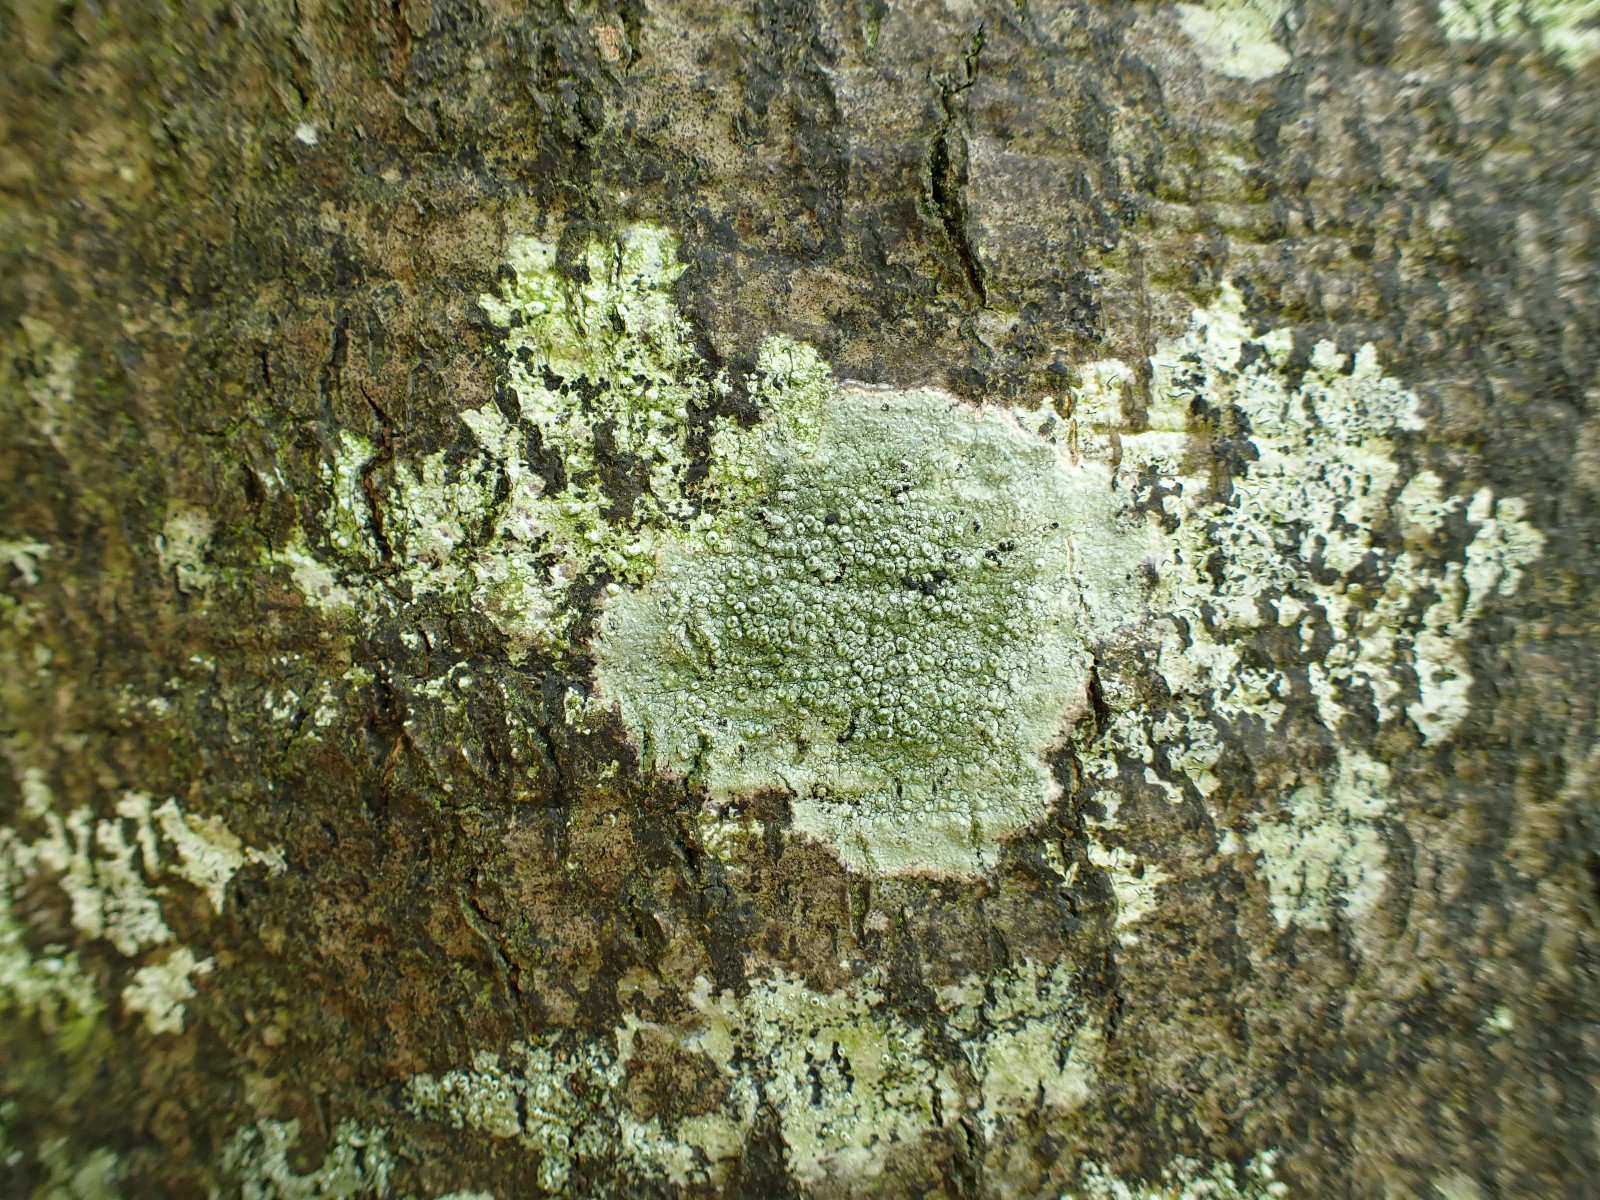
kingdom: Fungi
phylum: Ascomycota
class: Lecanoromycetes
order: Pertusariales
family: Pertusariaceae
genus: Pertusaria
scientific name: Pertusaria hymenea
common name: åben prikvortelav
